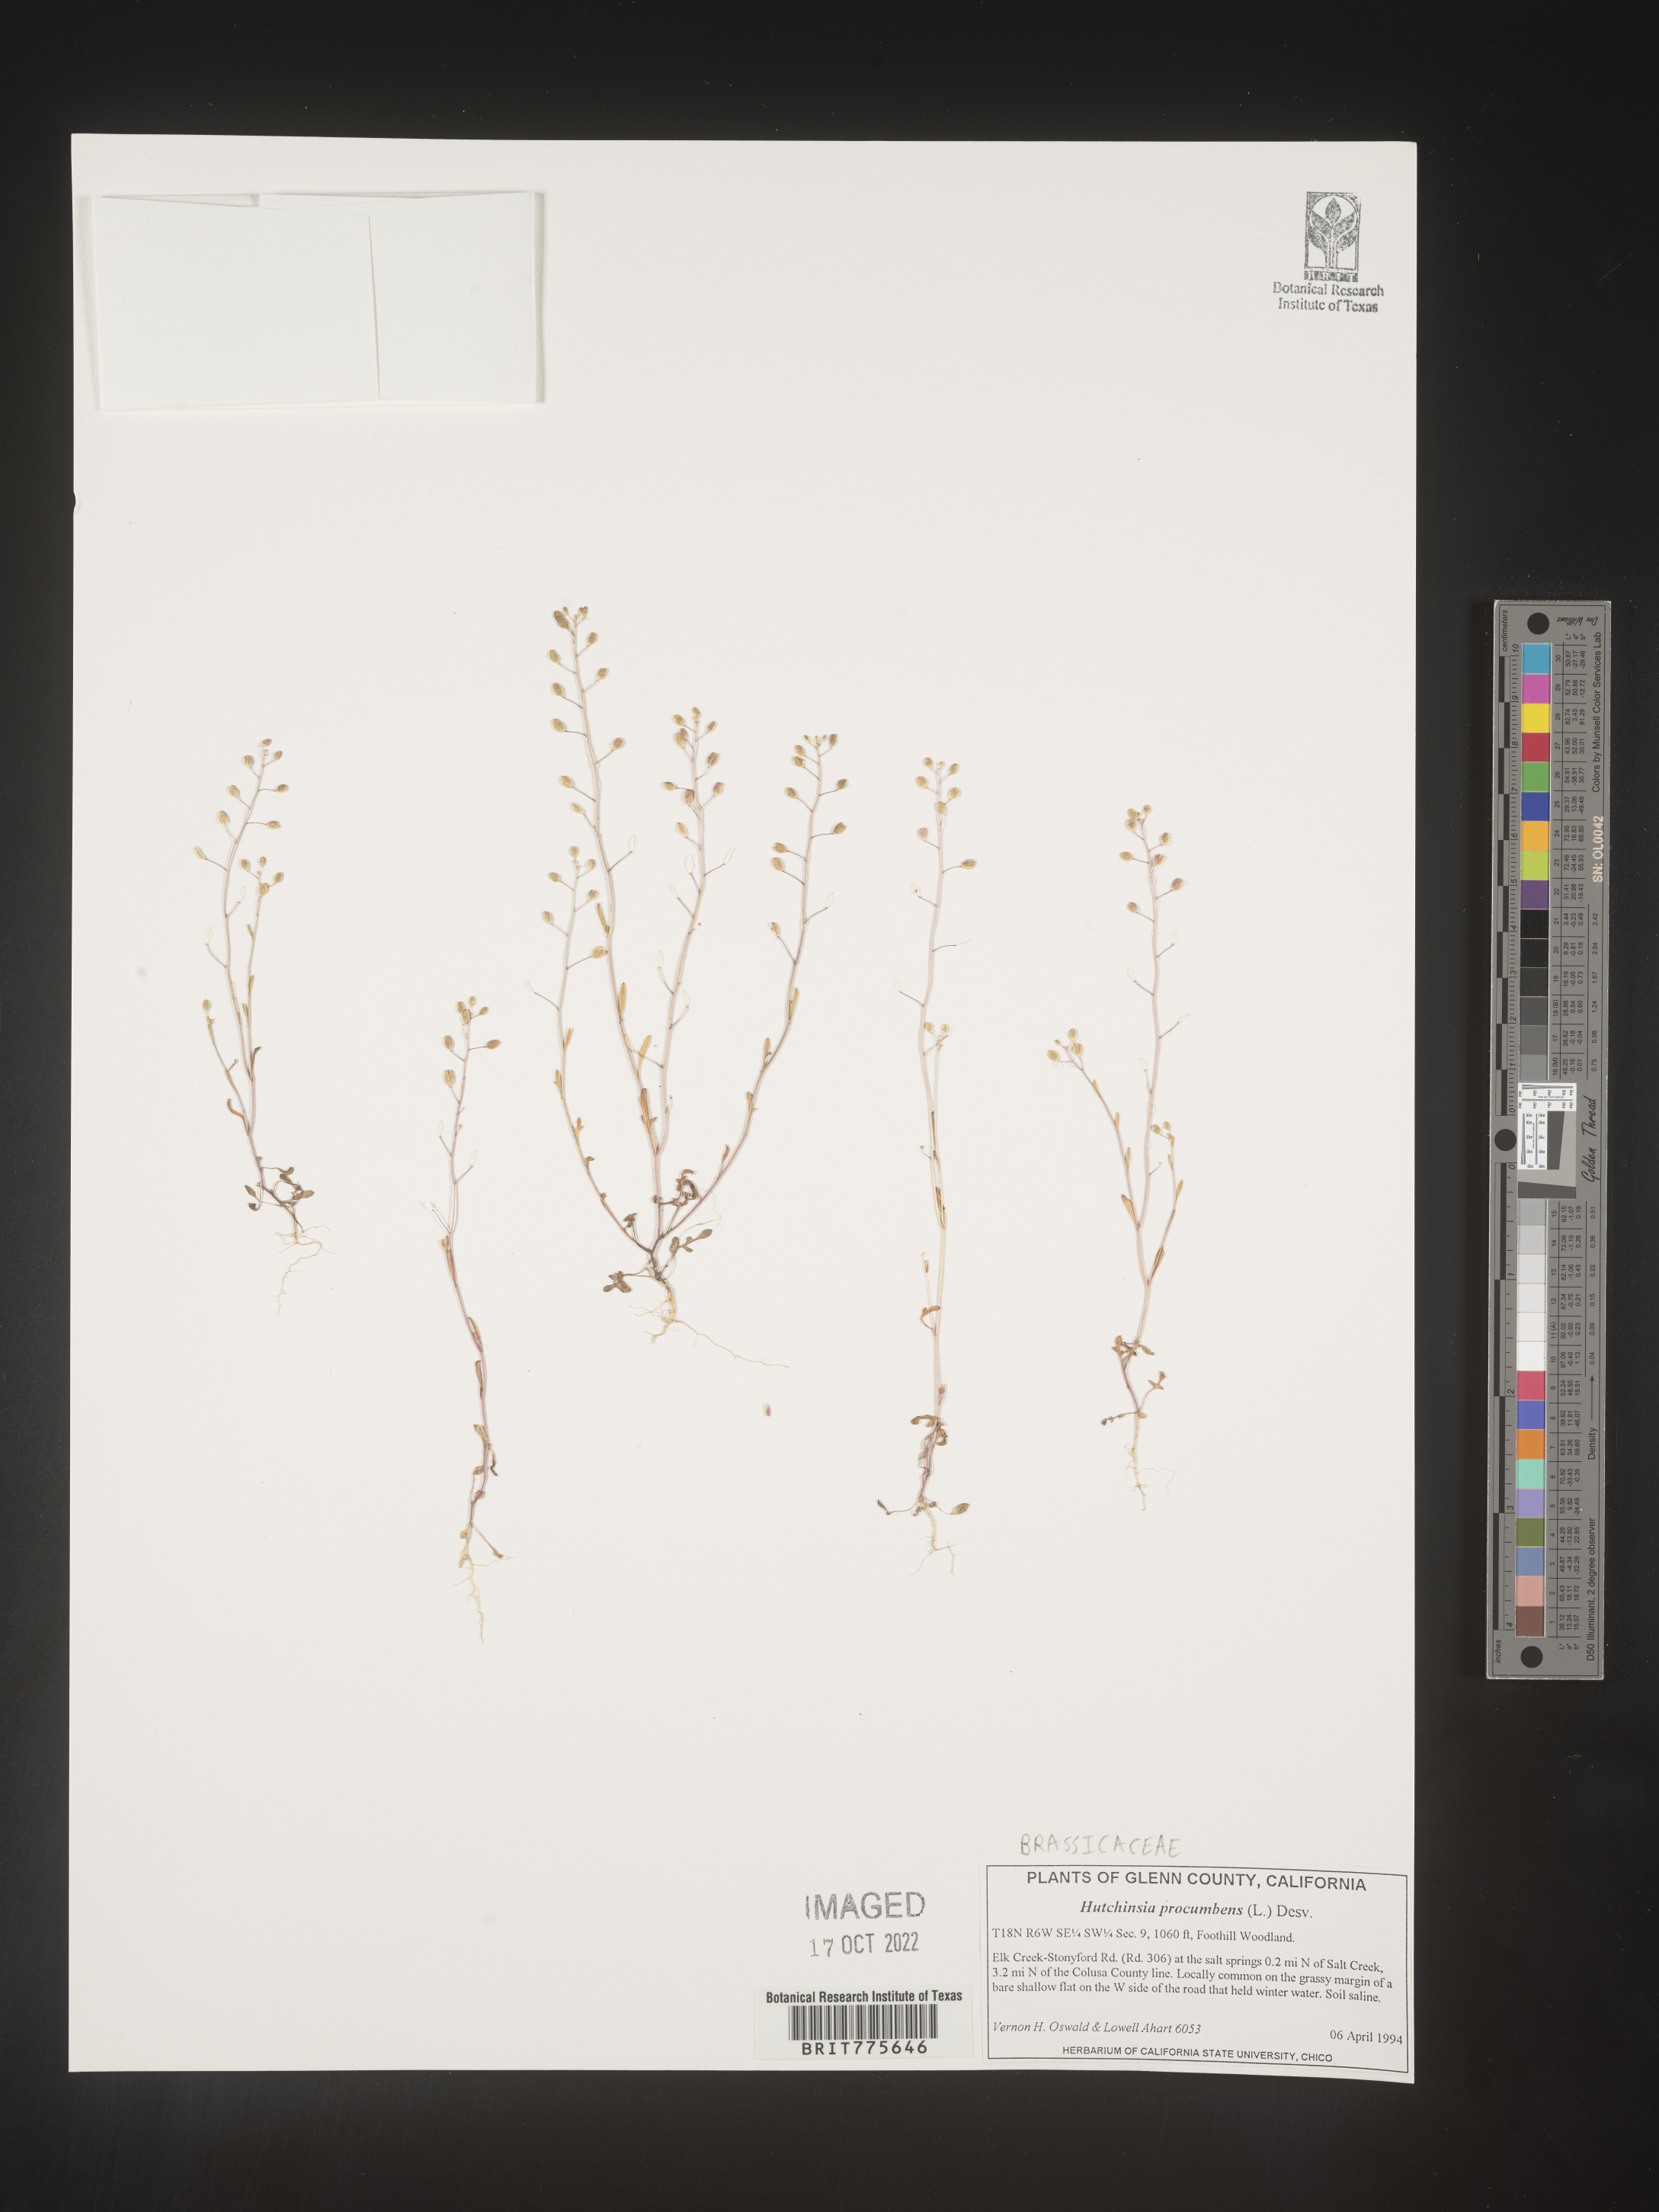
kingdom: Plantae
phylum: Rhodophyta
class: Florideophyceae
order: Ceramiales
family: Rhodomelaceae
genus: Hutchinsia
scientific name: Hutchinsia
